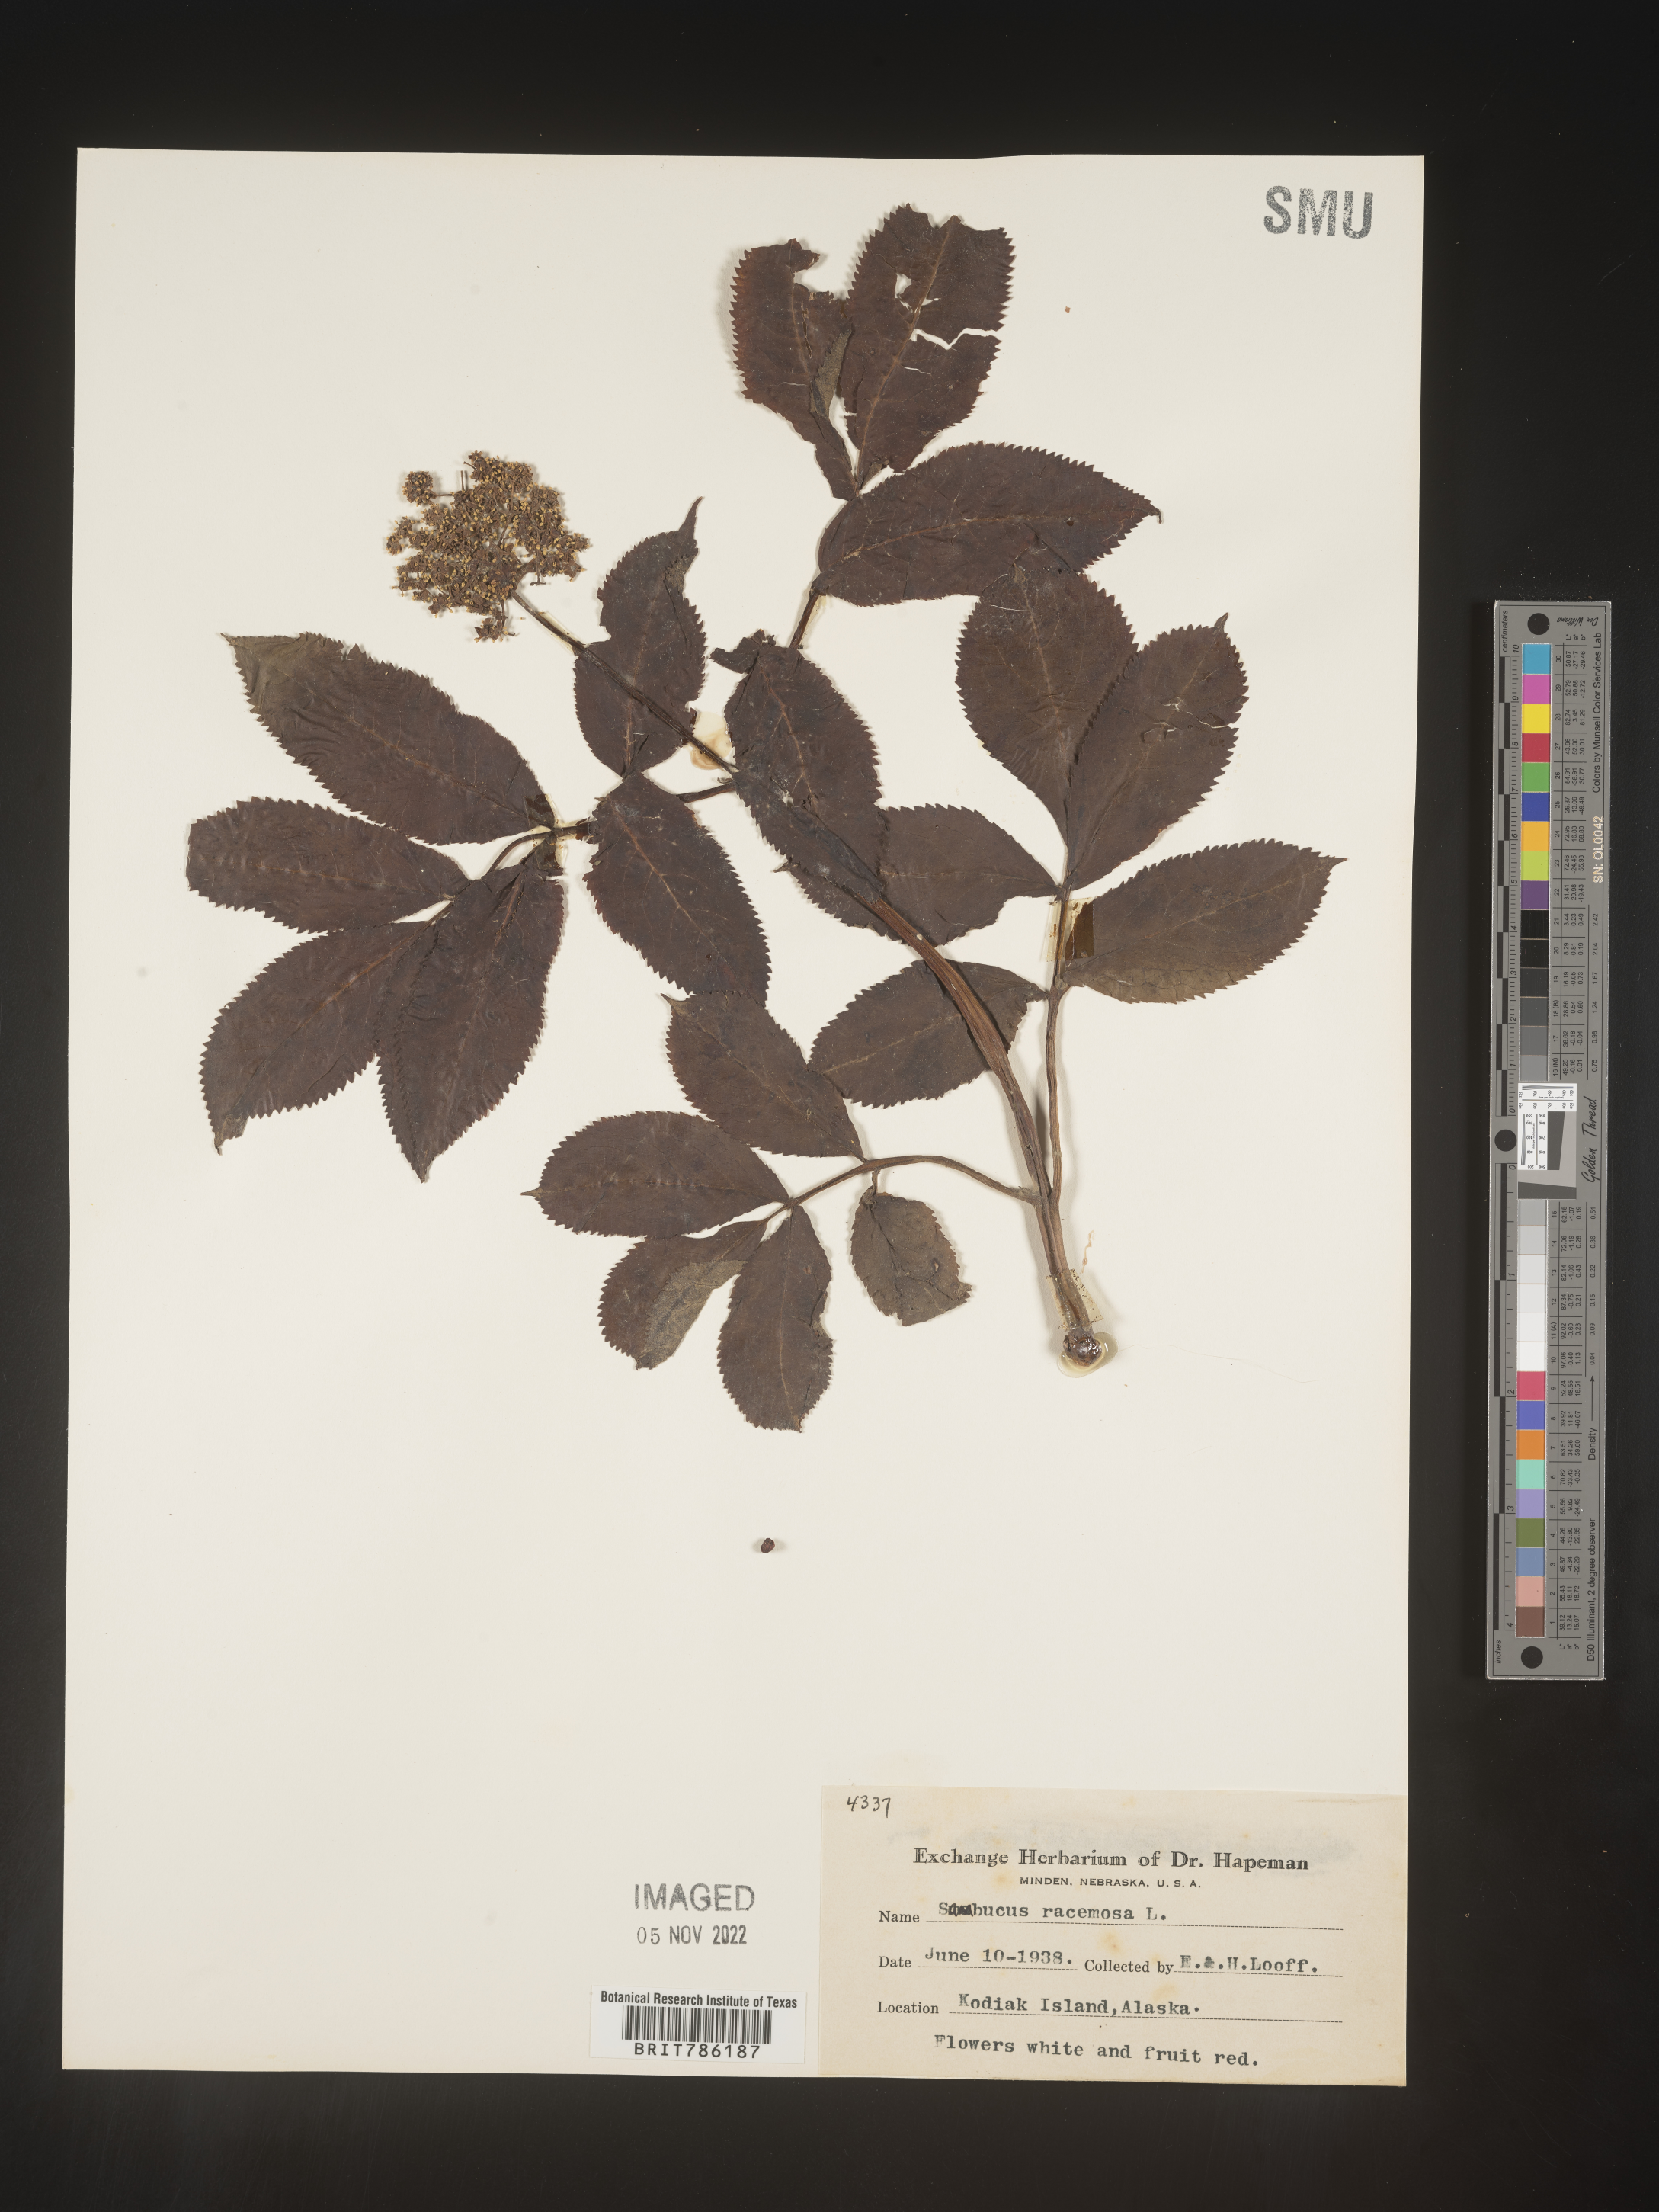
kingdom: Plantae
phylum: Tracheophyta
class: Magnoliopsida
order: Dipsacales
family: Viburnaceae
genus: Sambucus
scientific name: Sambucus
